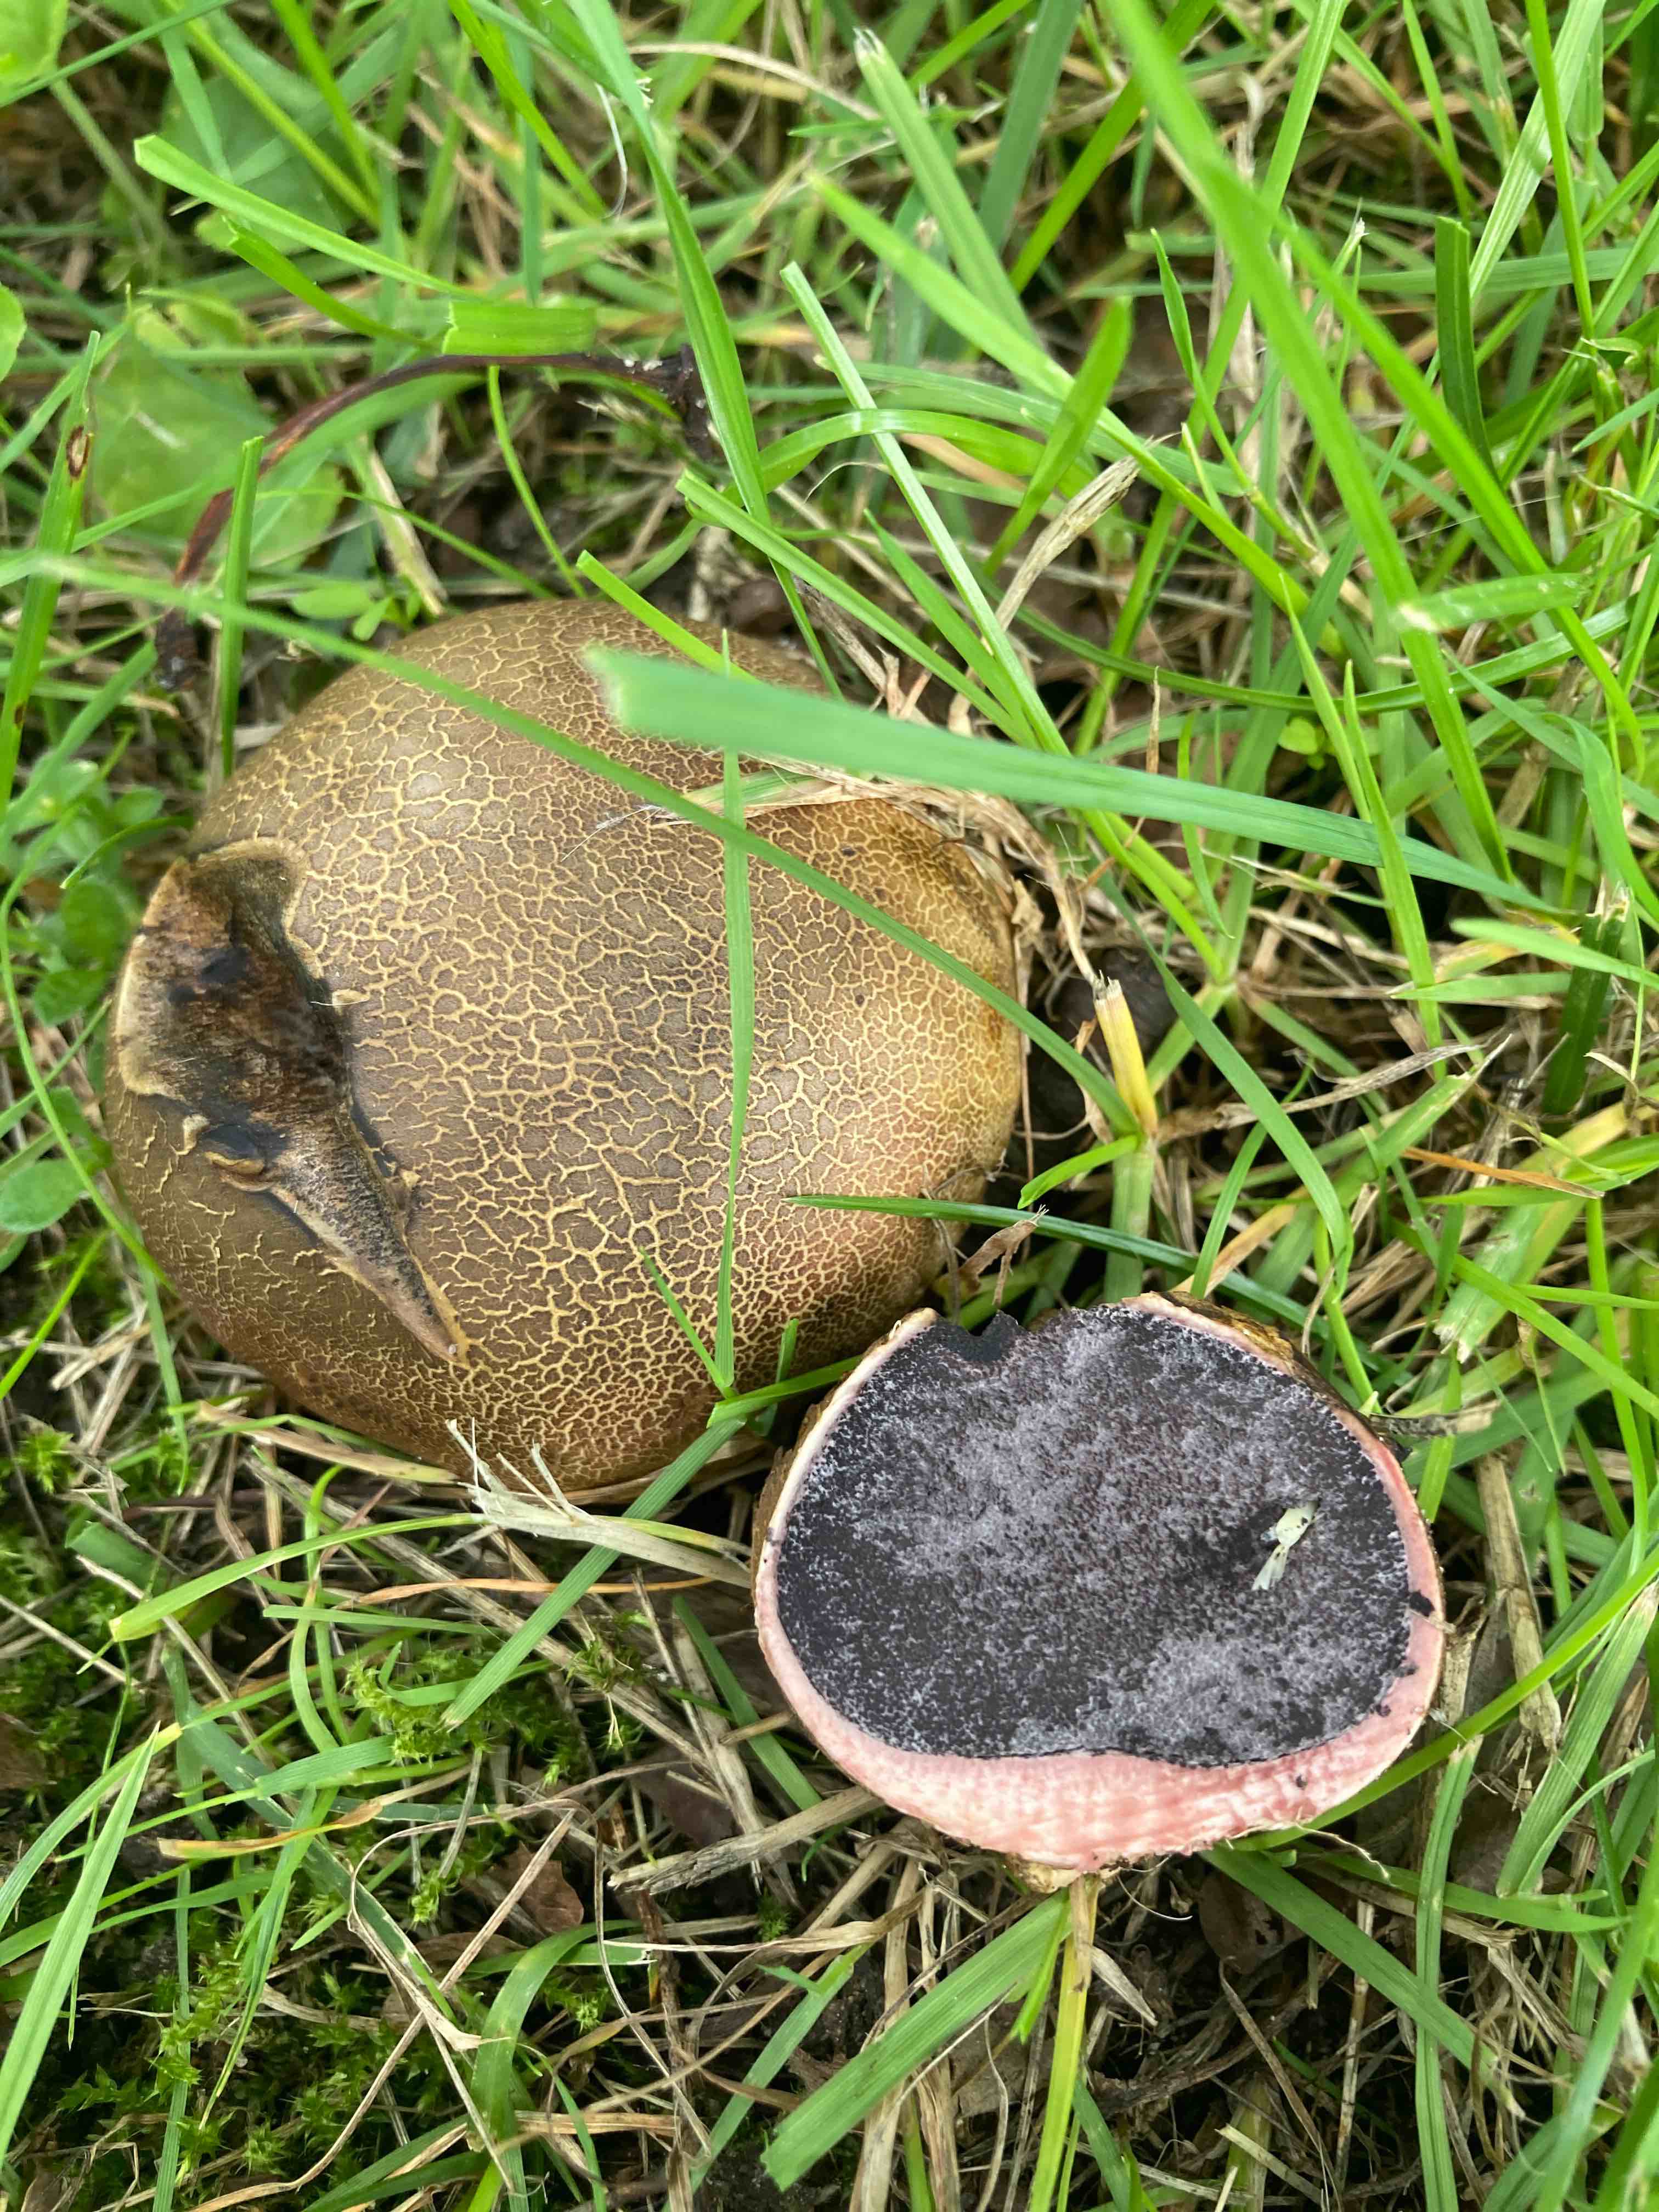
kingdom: Fungi
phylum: Basidiomycota
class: Agaricomycetes
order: Boletales
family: Sclerodermataceae
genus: Scleroderma
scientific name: Scleroderma bovista
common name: bovist-bruskbold
